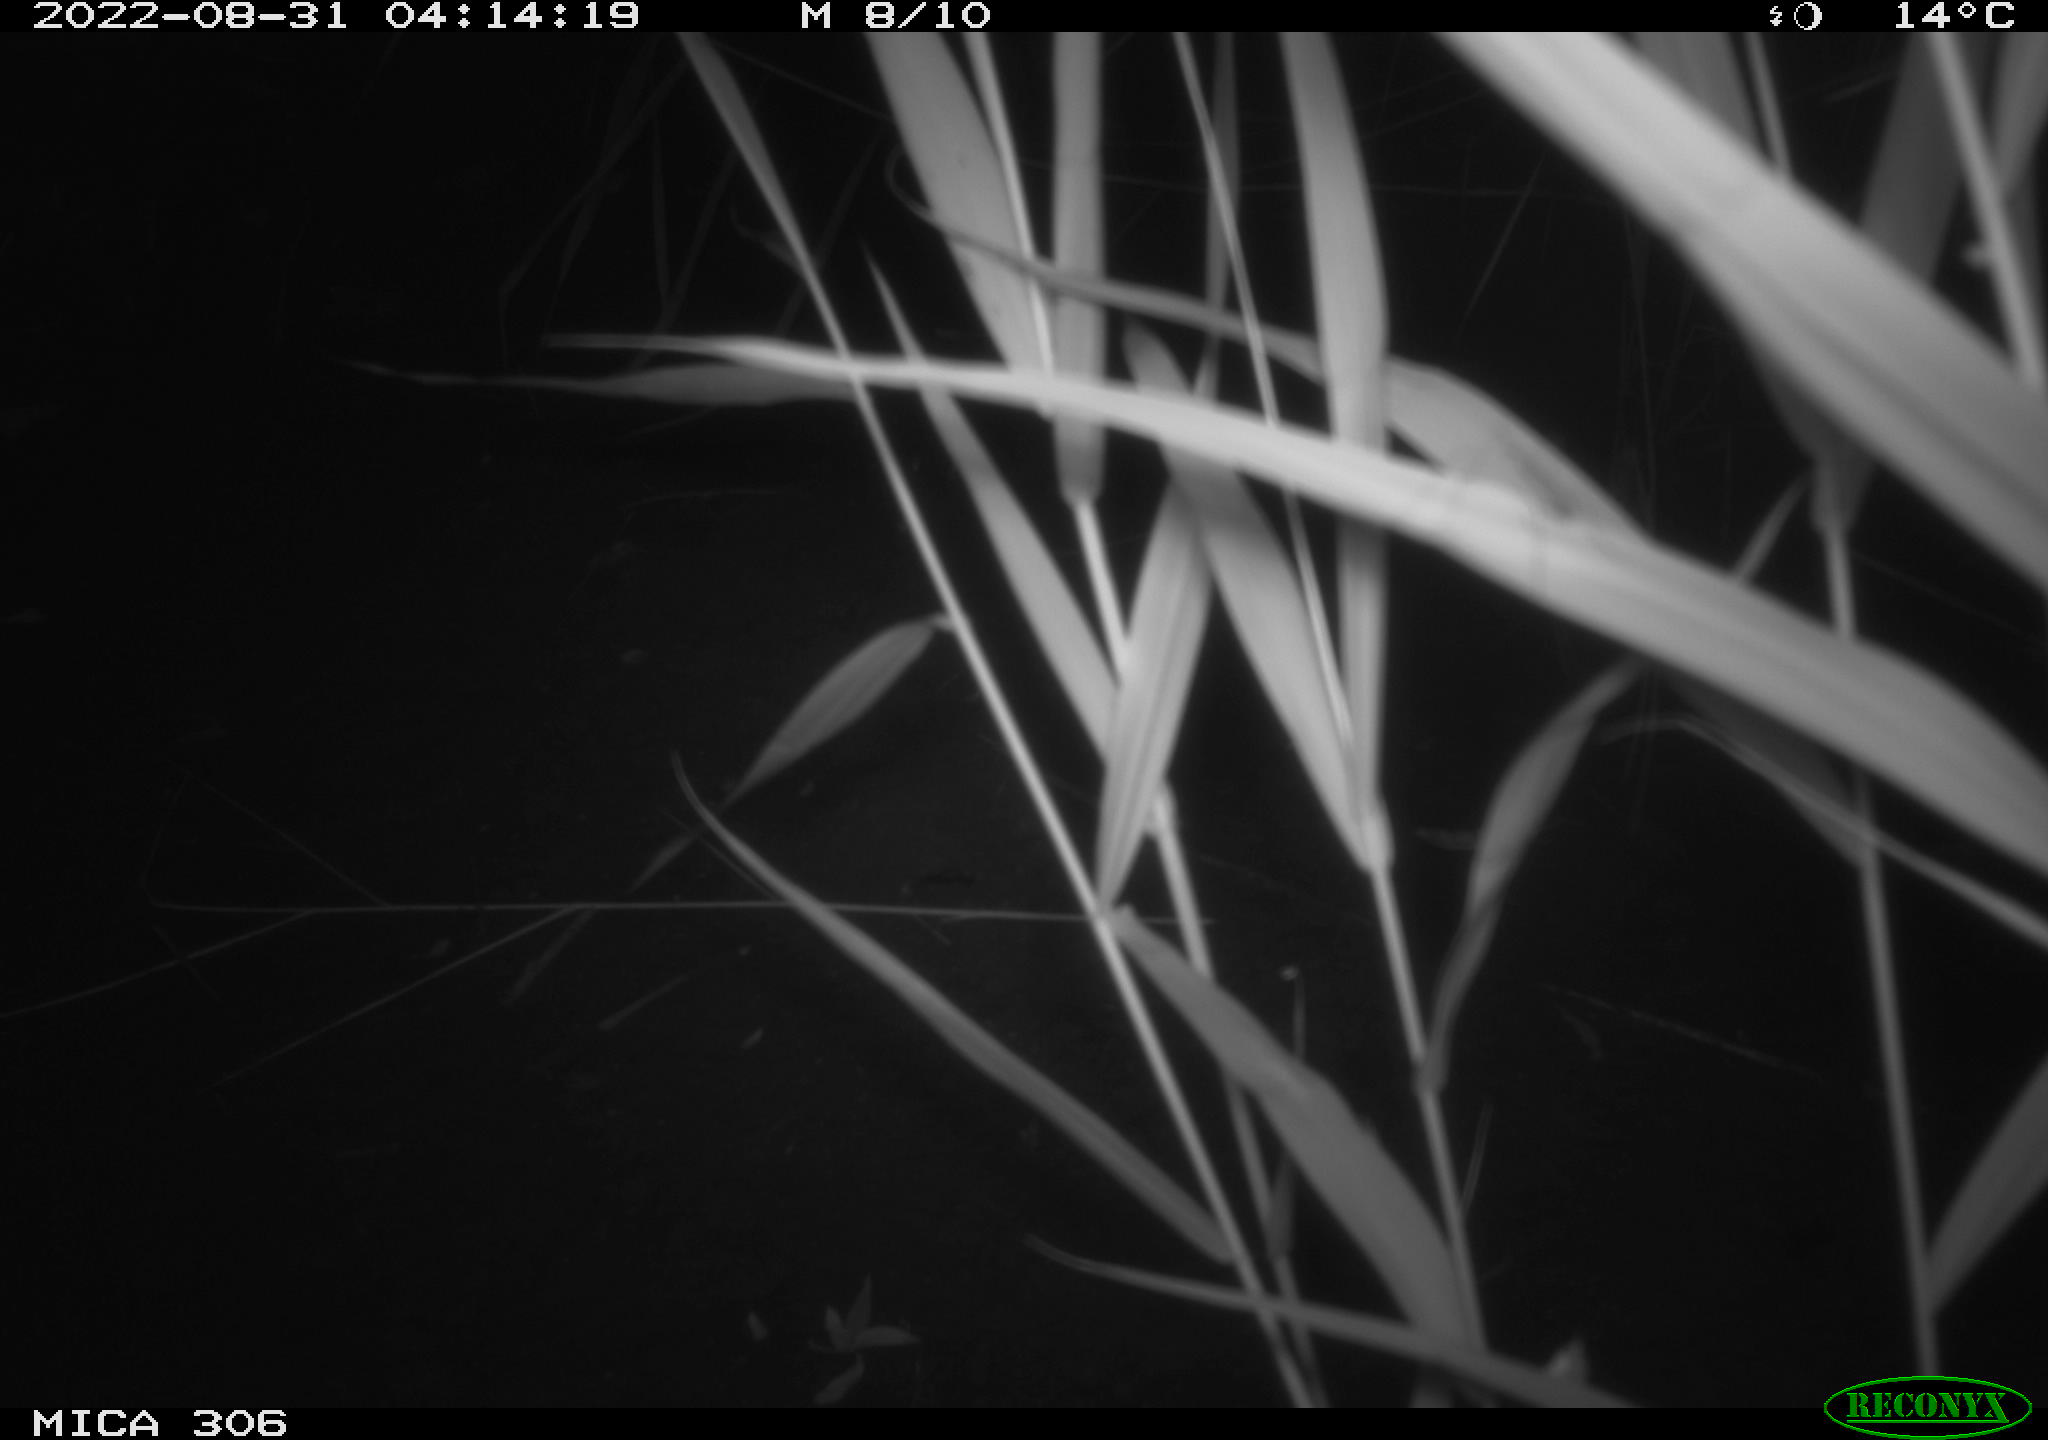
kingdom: Animalia
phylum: Chordata
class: Mammalia
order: Rodentia
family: Muridae
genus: Rattus
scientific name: Rattus norvegicus
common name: Brown rat
